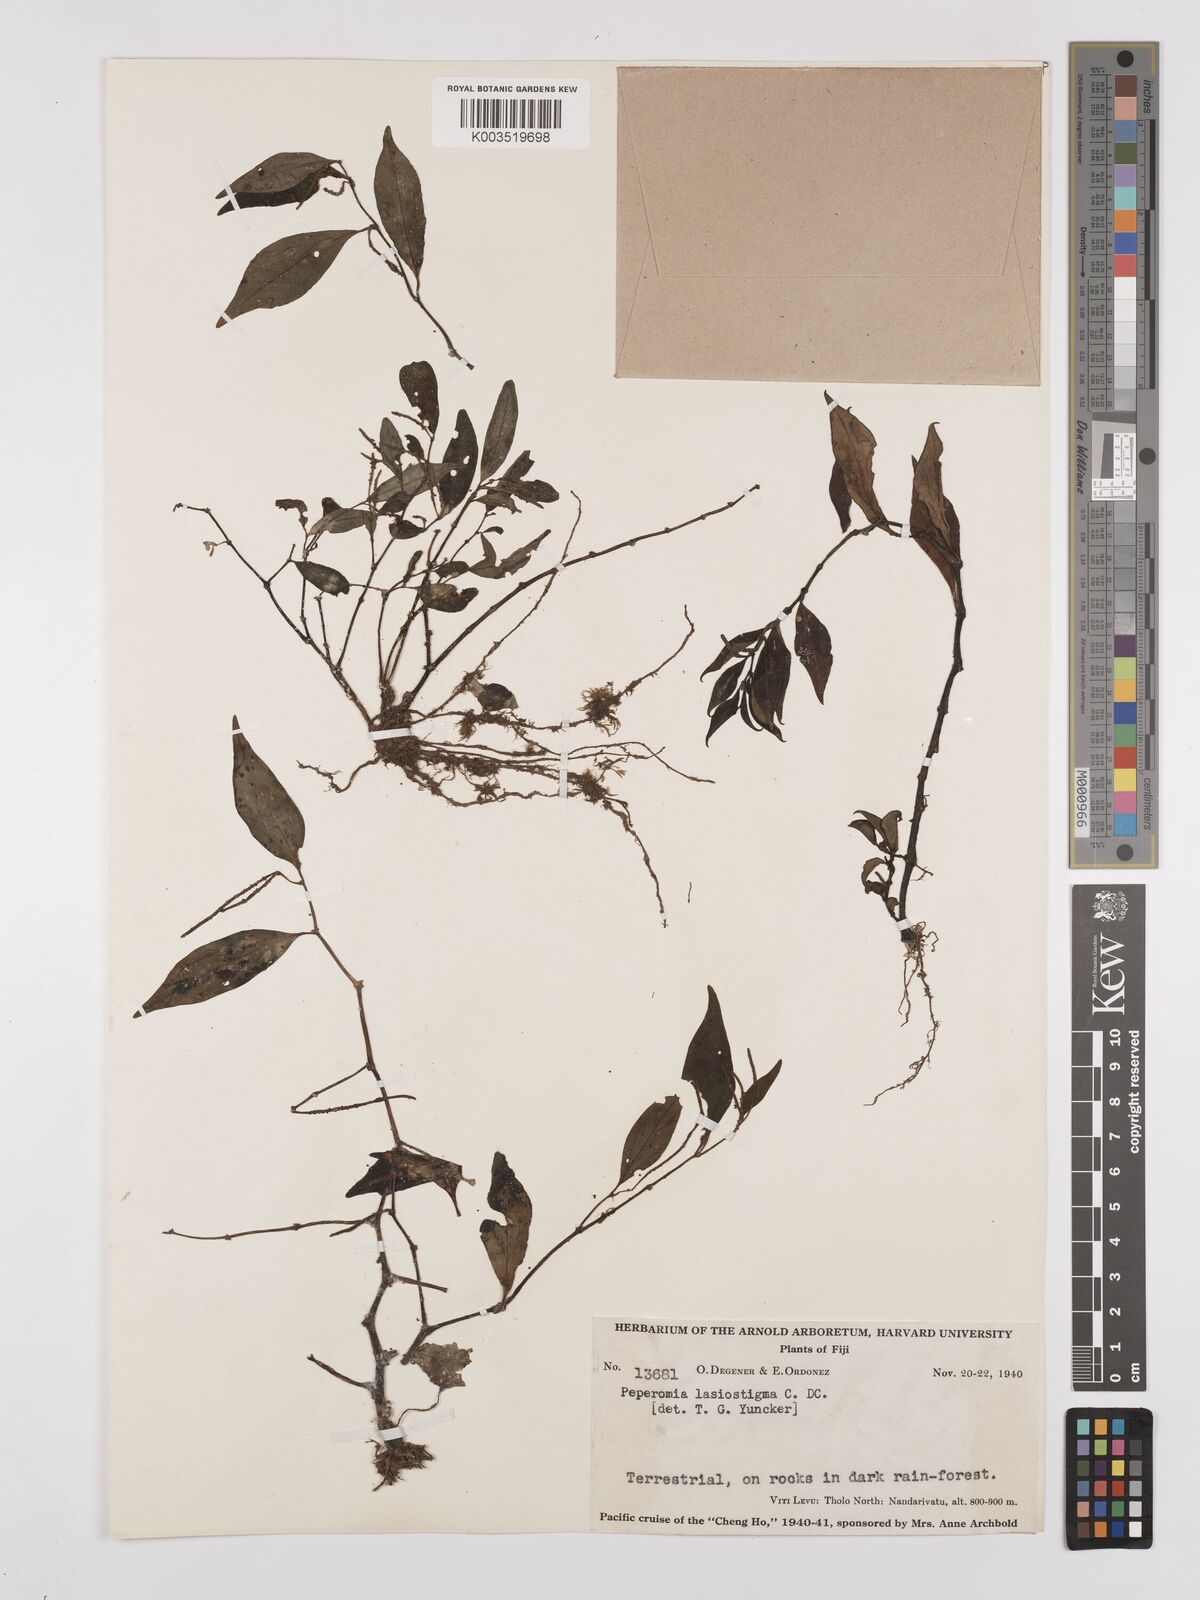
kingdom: Plantae
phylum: Tracheophyta
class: Magnoliopsida
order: Piperales
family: Piperaceae
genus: Peperomia
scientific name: Peperomia lasiostigma
